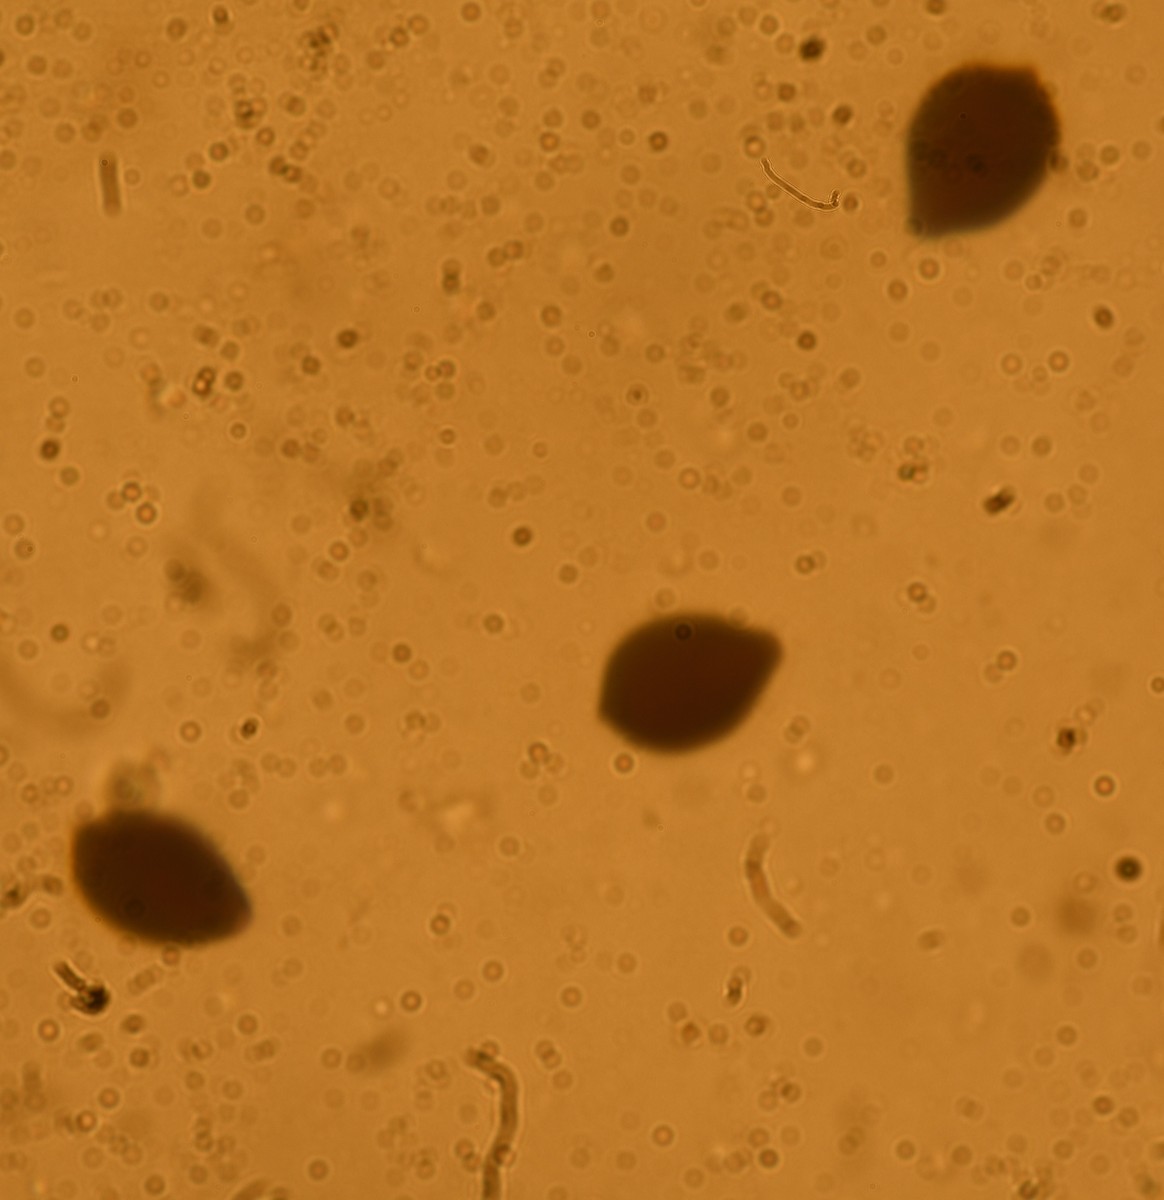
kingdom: Fungi
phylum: Basidiomycota
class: Agaricomycetes
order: Agaricales
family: Psathyrellaceae
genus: Parasola
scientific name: Parasola lactea
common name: glat hjulhat
